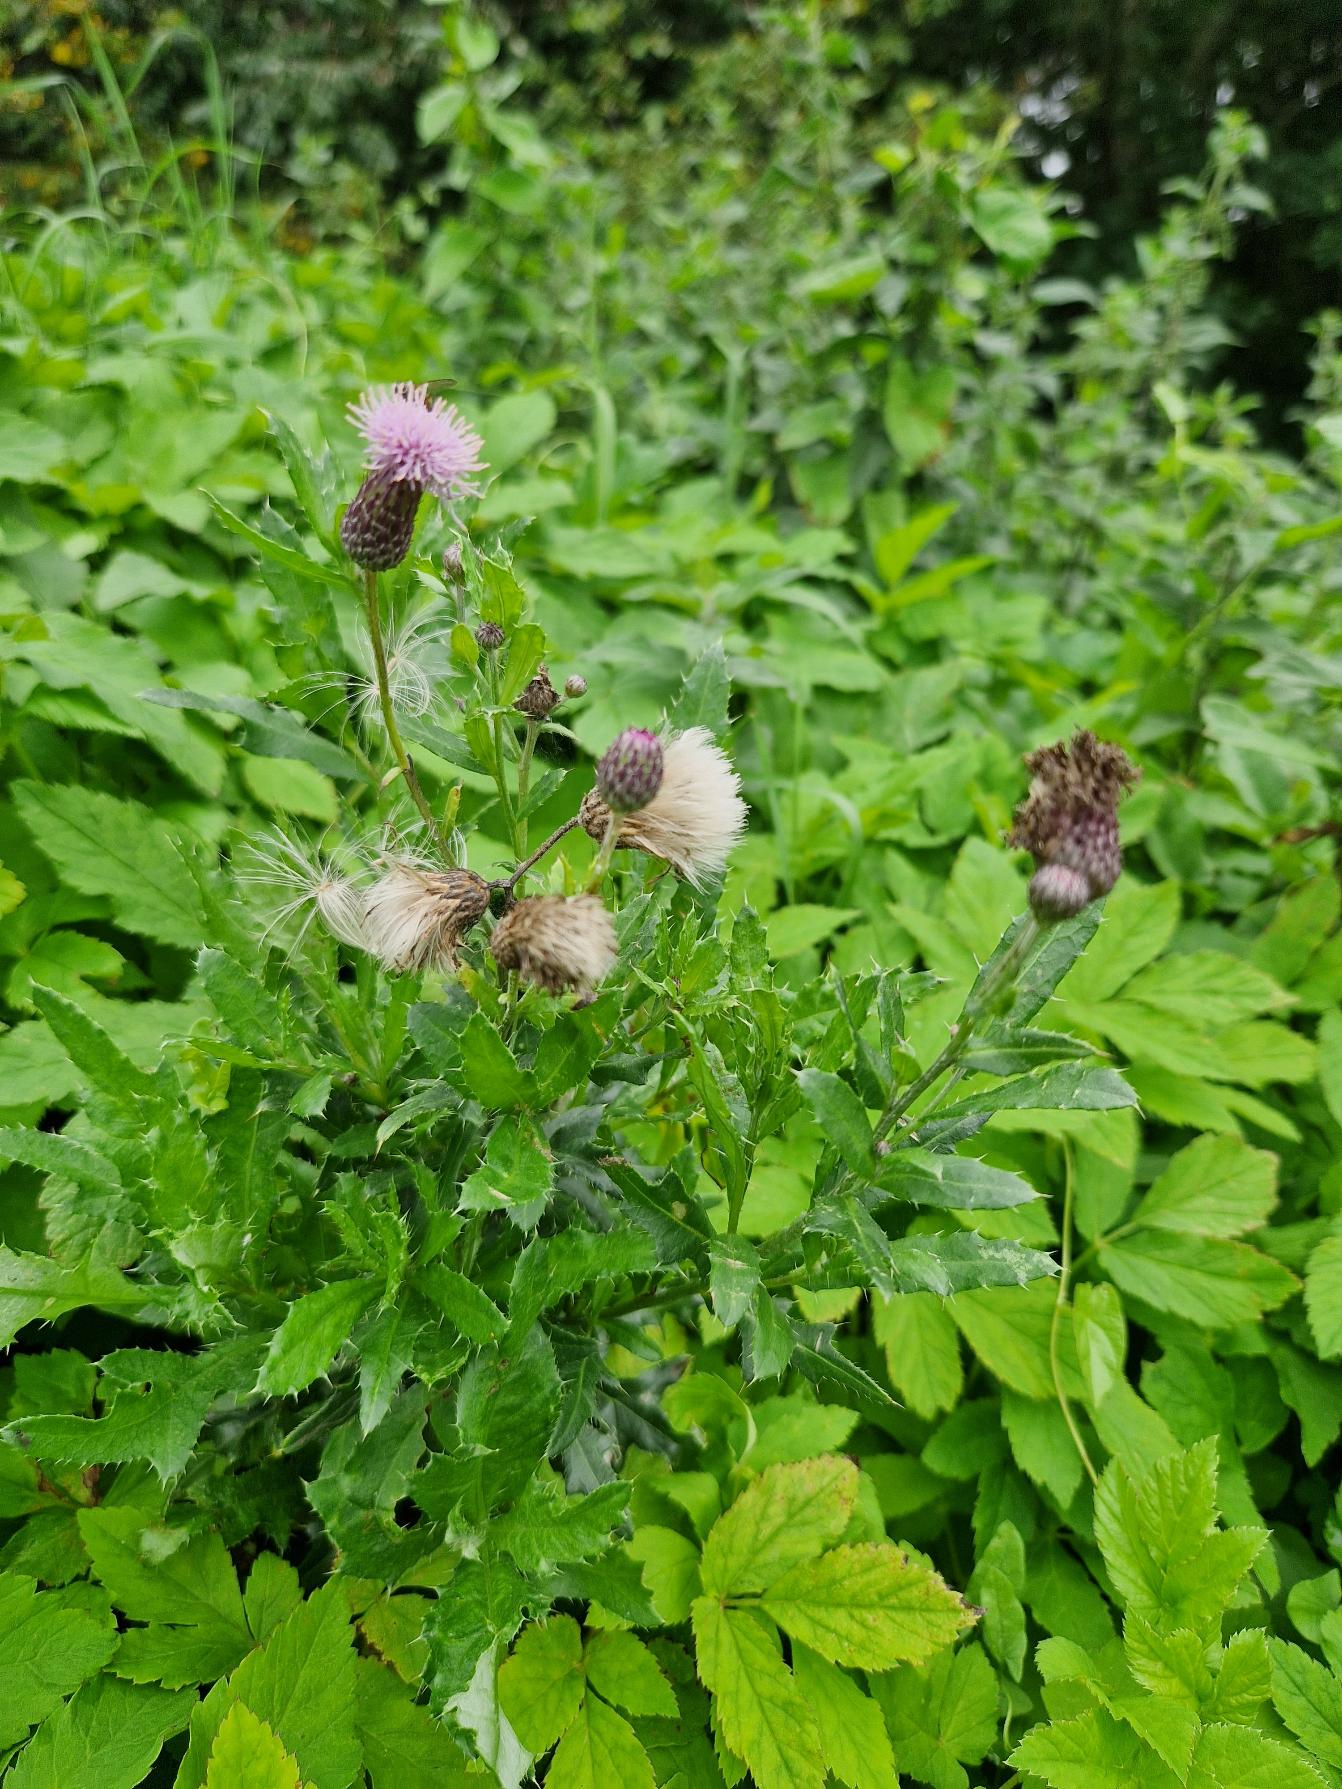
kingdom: Plantae
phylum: Tracheophyta
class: Magnoliopsida
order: Asterales
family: Asteraceae
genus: Cirsium
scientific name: Cirsium arvense
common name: Ager-tidsel
